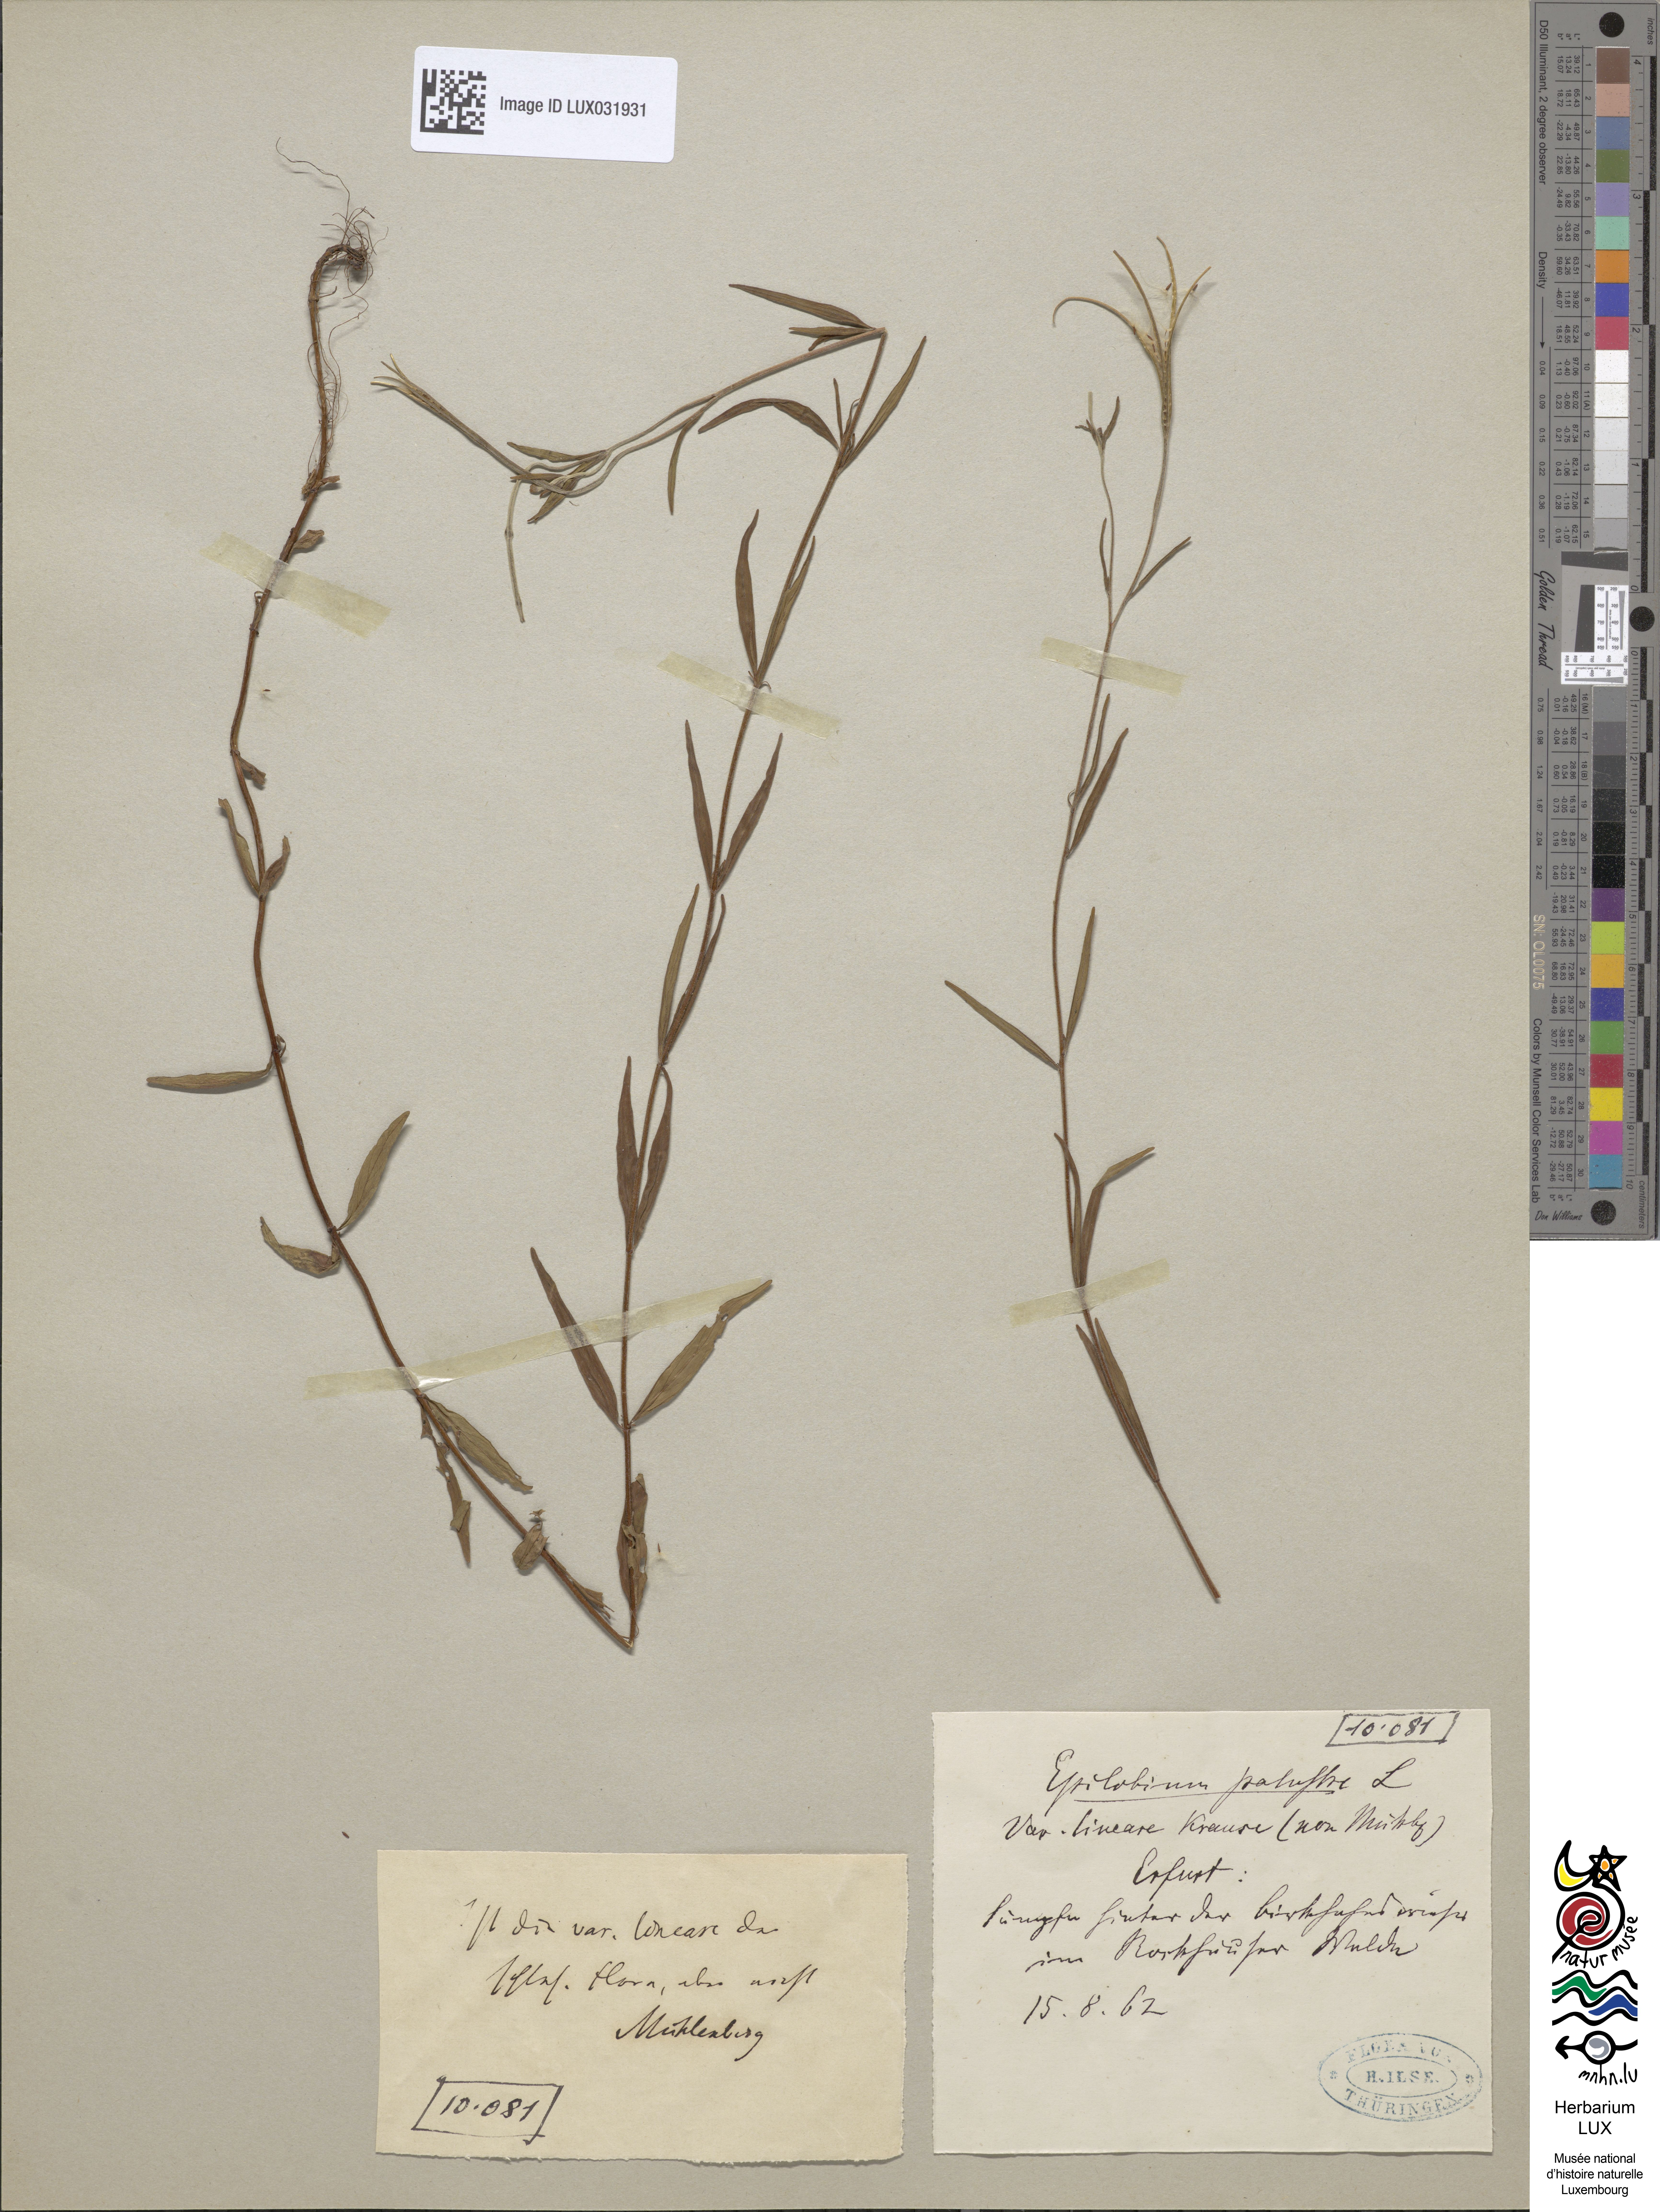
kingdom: Plantae
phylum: Tracheophyta
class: Magnoliopsida
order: Myrtales
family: Onagraceae
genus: Epilobium
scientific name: Epilobium palustre
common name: Marsh willowherb
